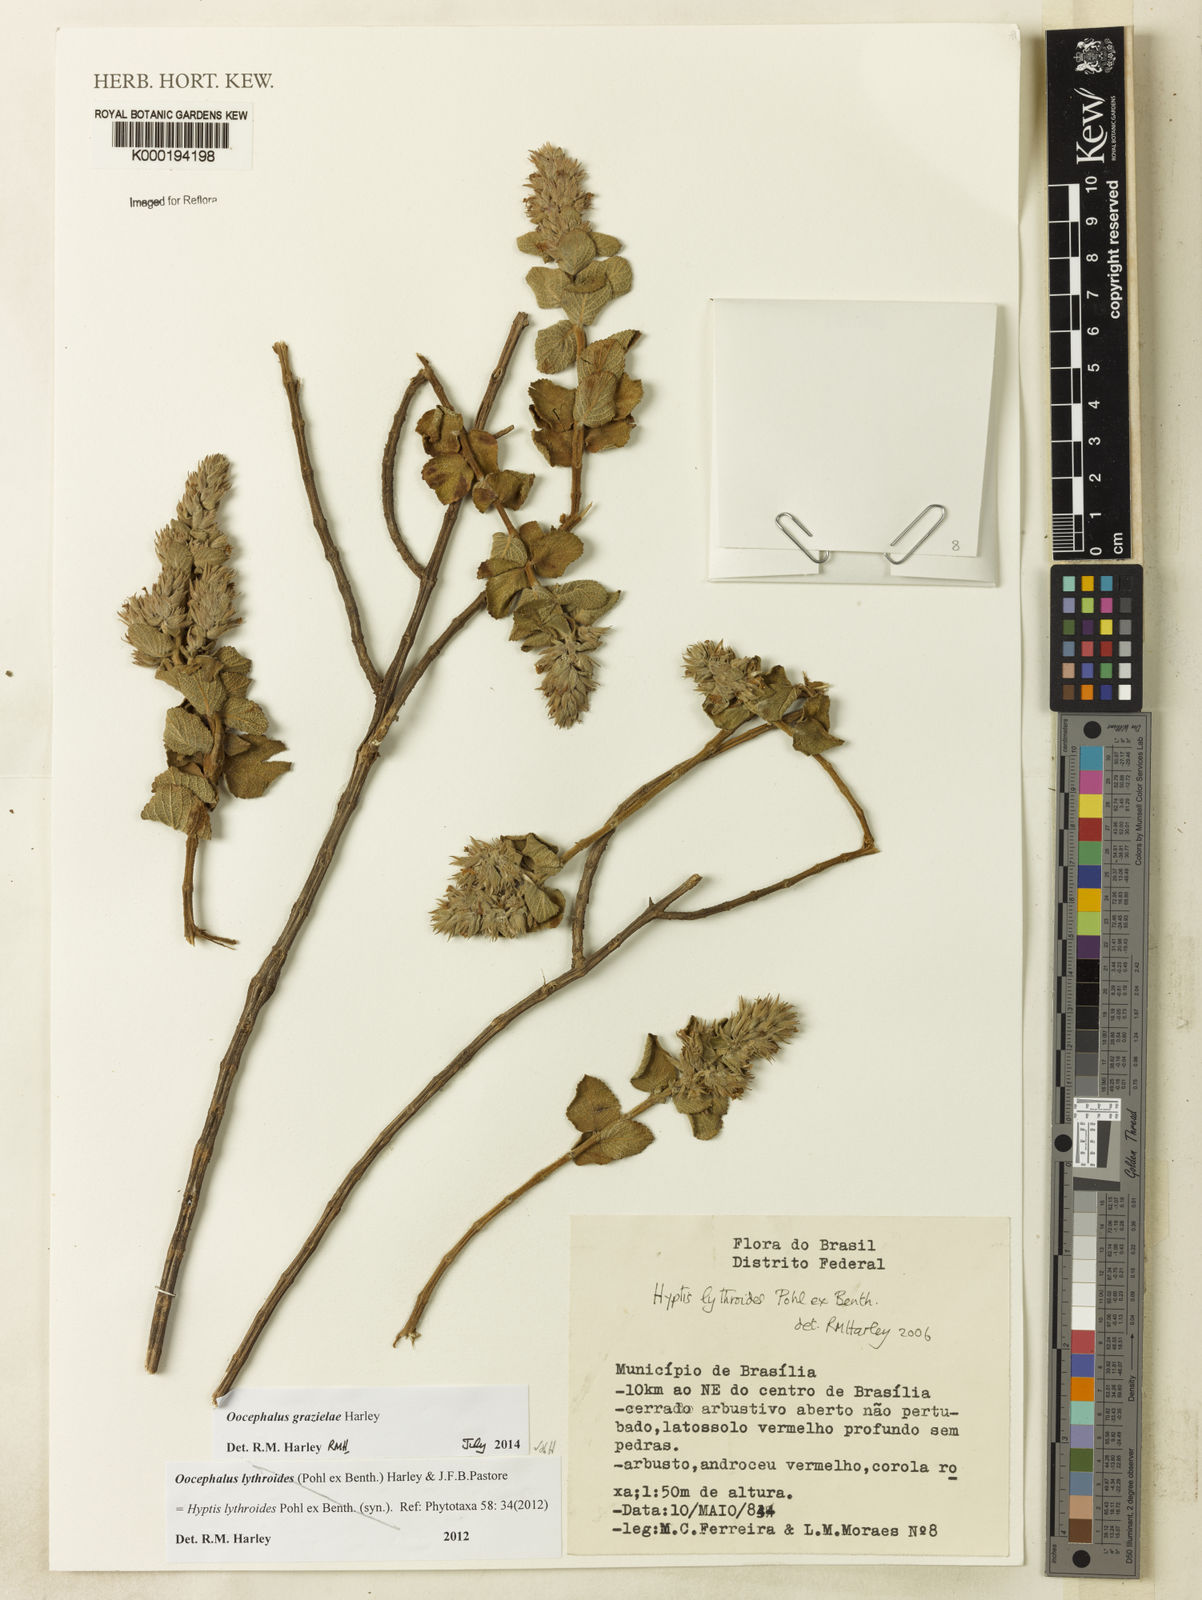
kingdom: Plantae
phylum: Tracheophyta
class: Magnoliopsida
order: Lamiales
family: Lamiaceae
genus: Oocephalus
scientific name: Oocephalus lythroides
